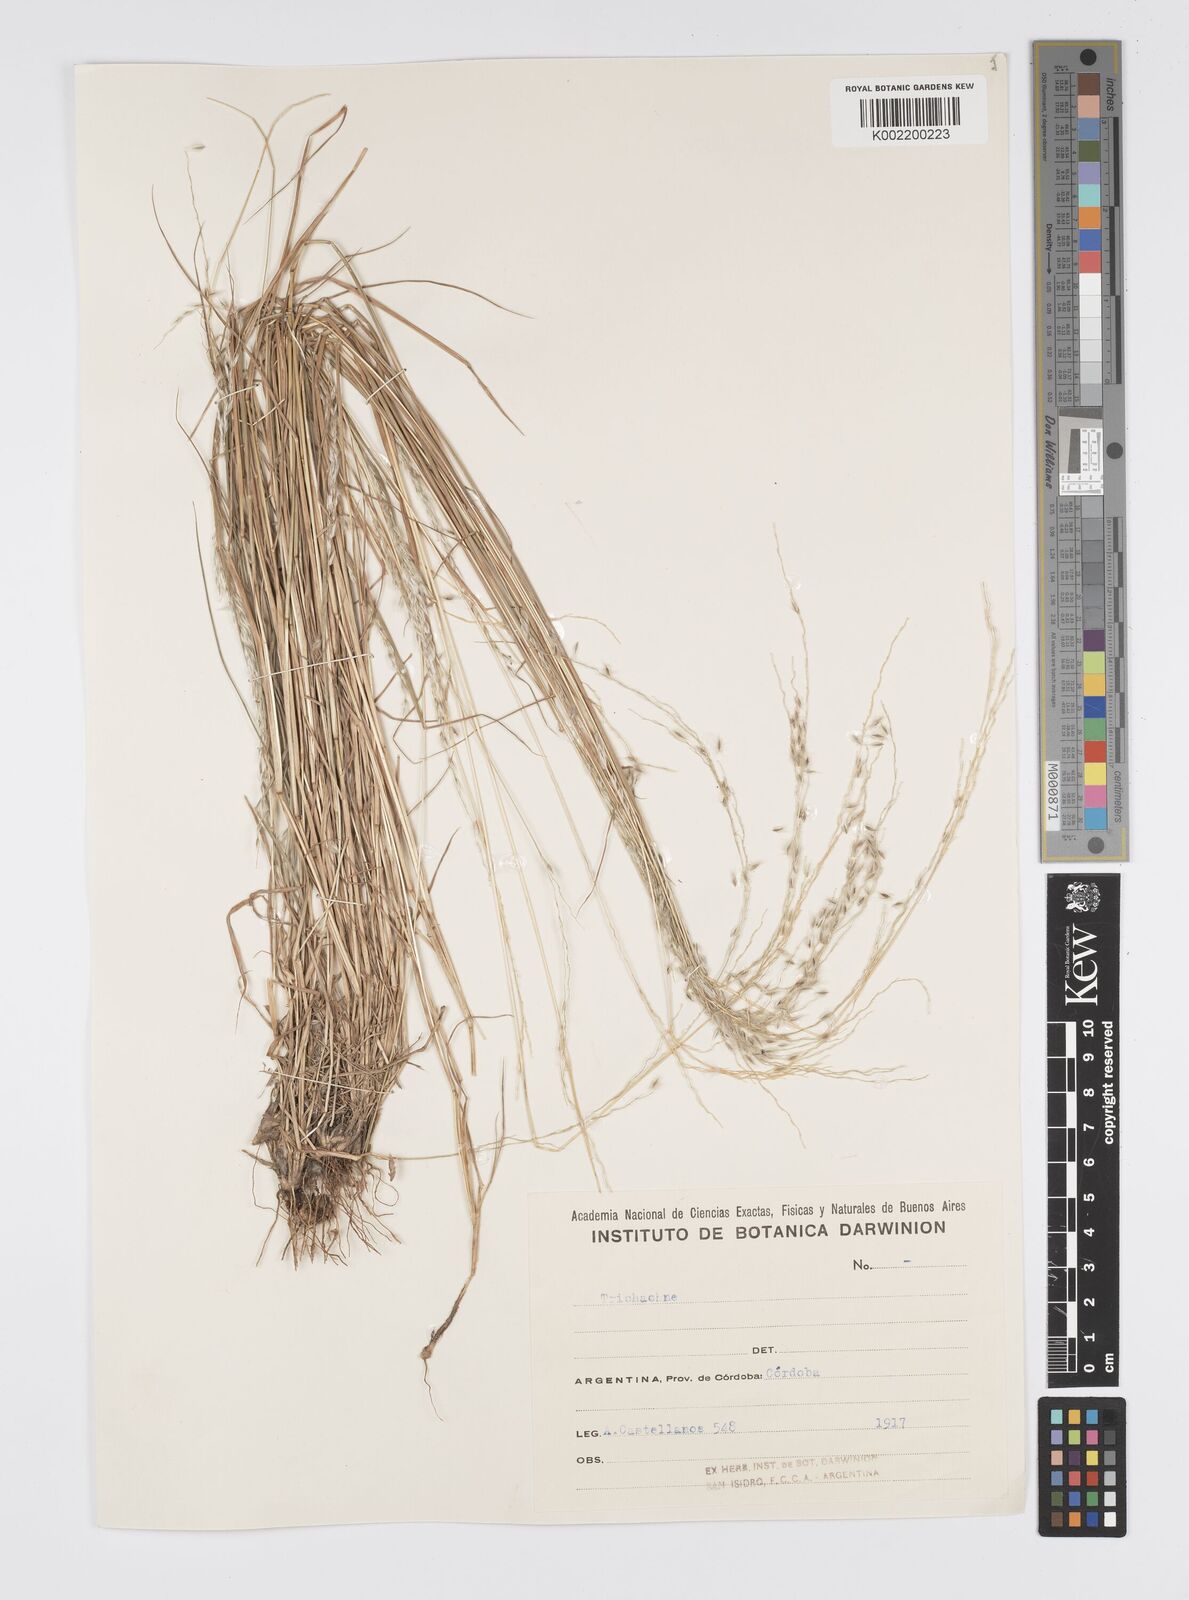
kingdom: Plantae
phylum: Tracheophyta
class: Liliopsida
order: Poales
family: Poaceae
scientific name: Poaceae
